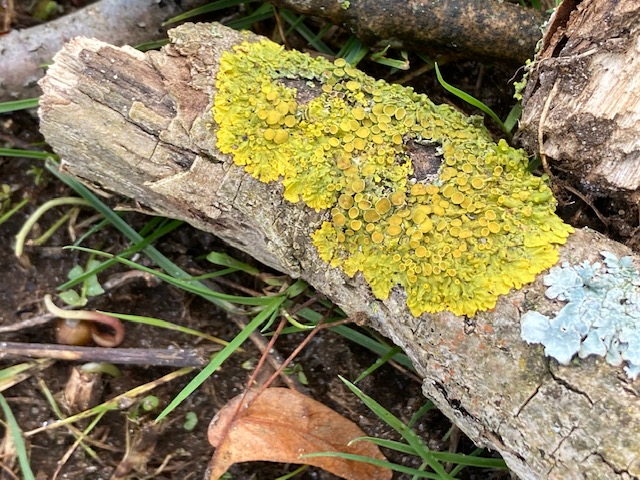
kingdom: Fungi
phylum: Ascomycota
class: Lecanoromycetes
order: Teloschistales
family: Teloschistaceae
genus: Xanthoria
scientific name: Xanthoria parietina
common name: almindelig væggelav
